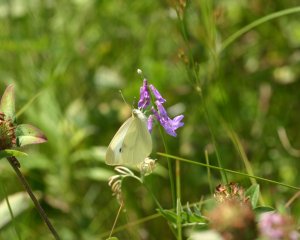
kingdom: Animalia
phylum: Arthropoda
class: Insecta
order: Lepidoptera
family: Pieridae
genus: Pieris
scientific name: Pieris rapae
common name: Cabbage White
